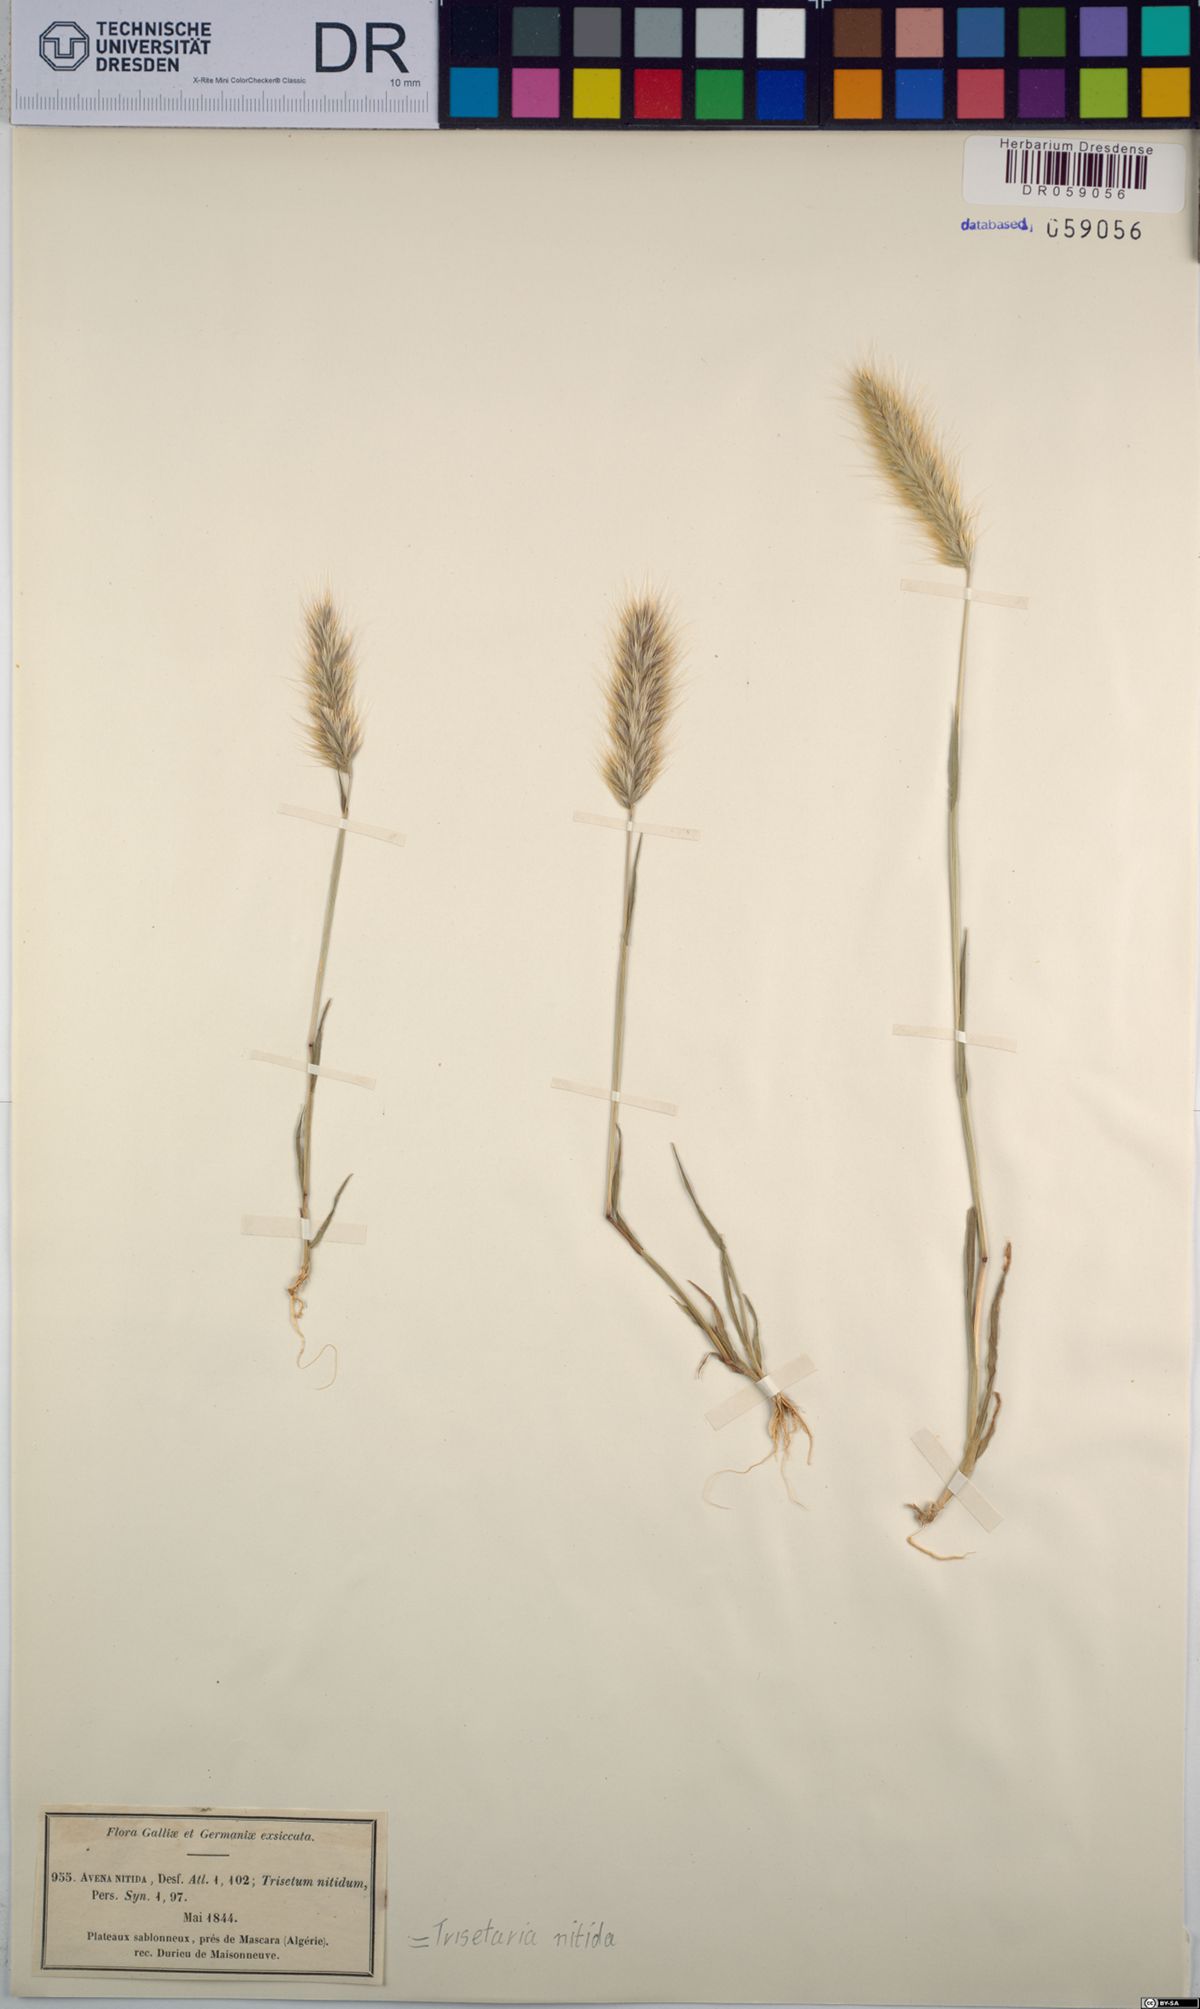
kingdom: Plantae
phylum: Tracheophyta
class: Liliopsida
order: Poales
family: Poaceae
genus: Trisetaria
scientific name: Trisetaria nitida
